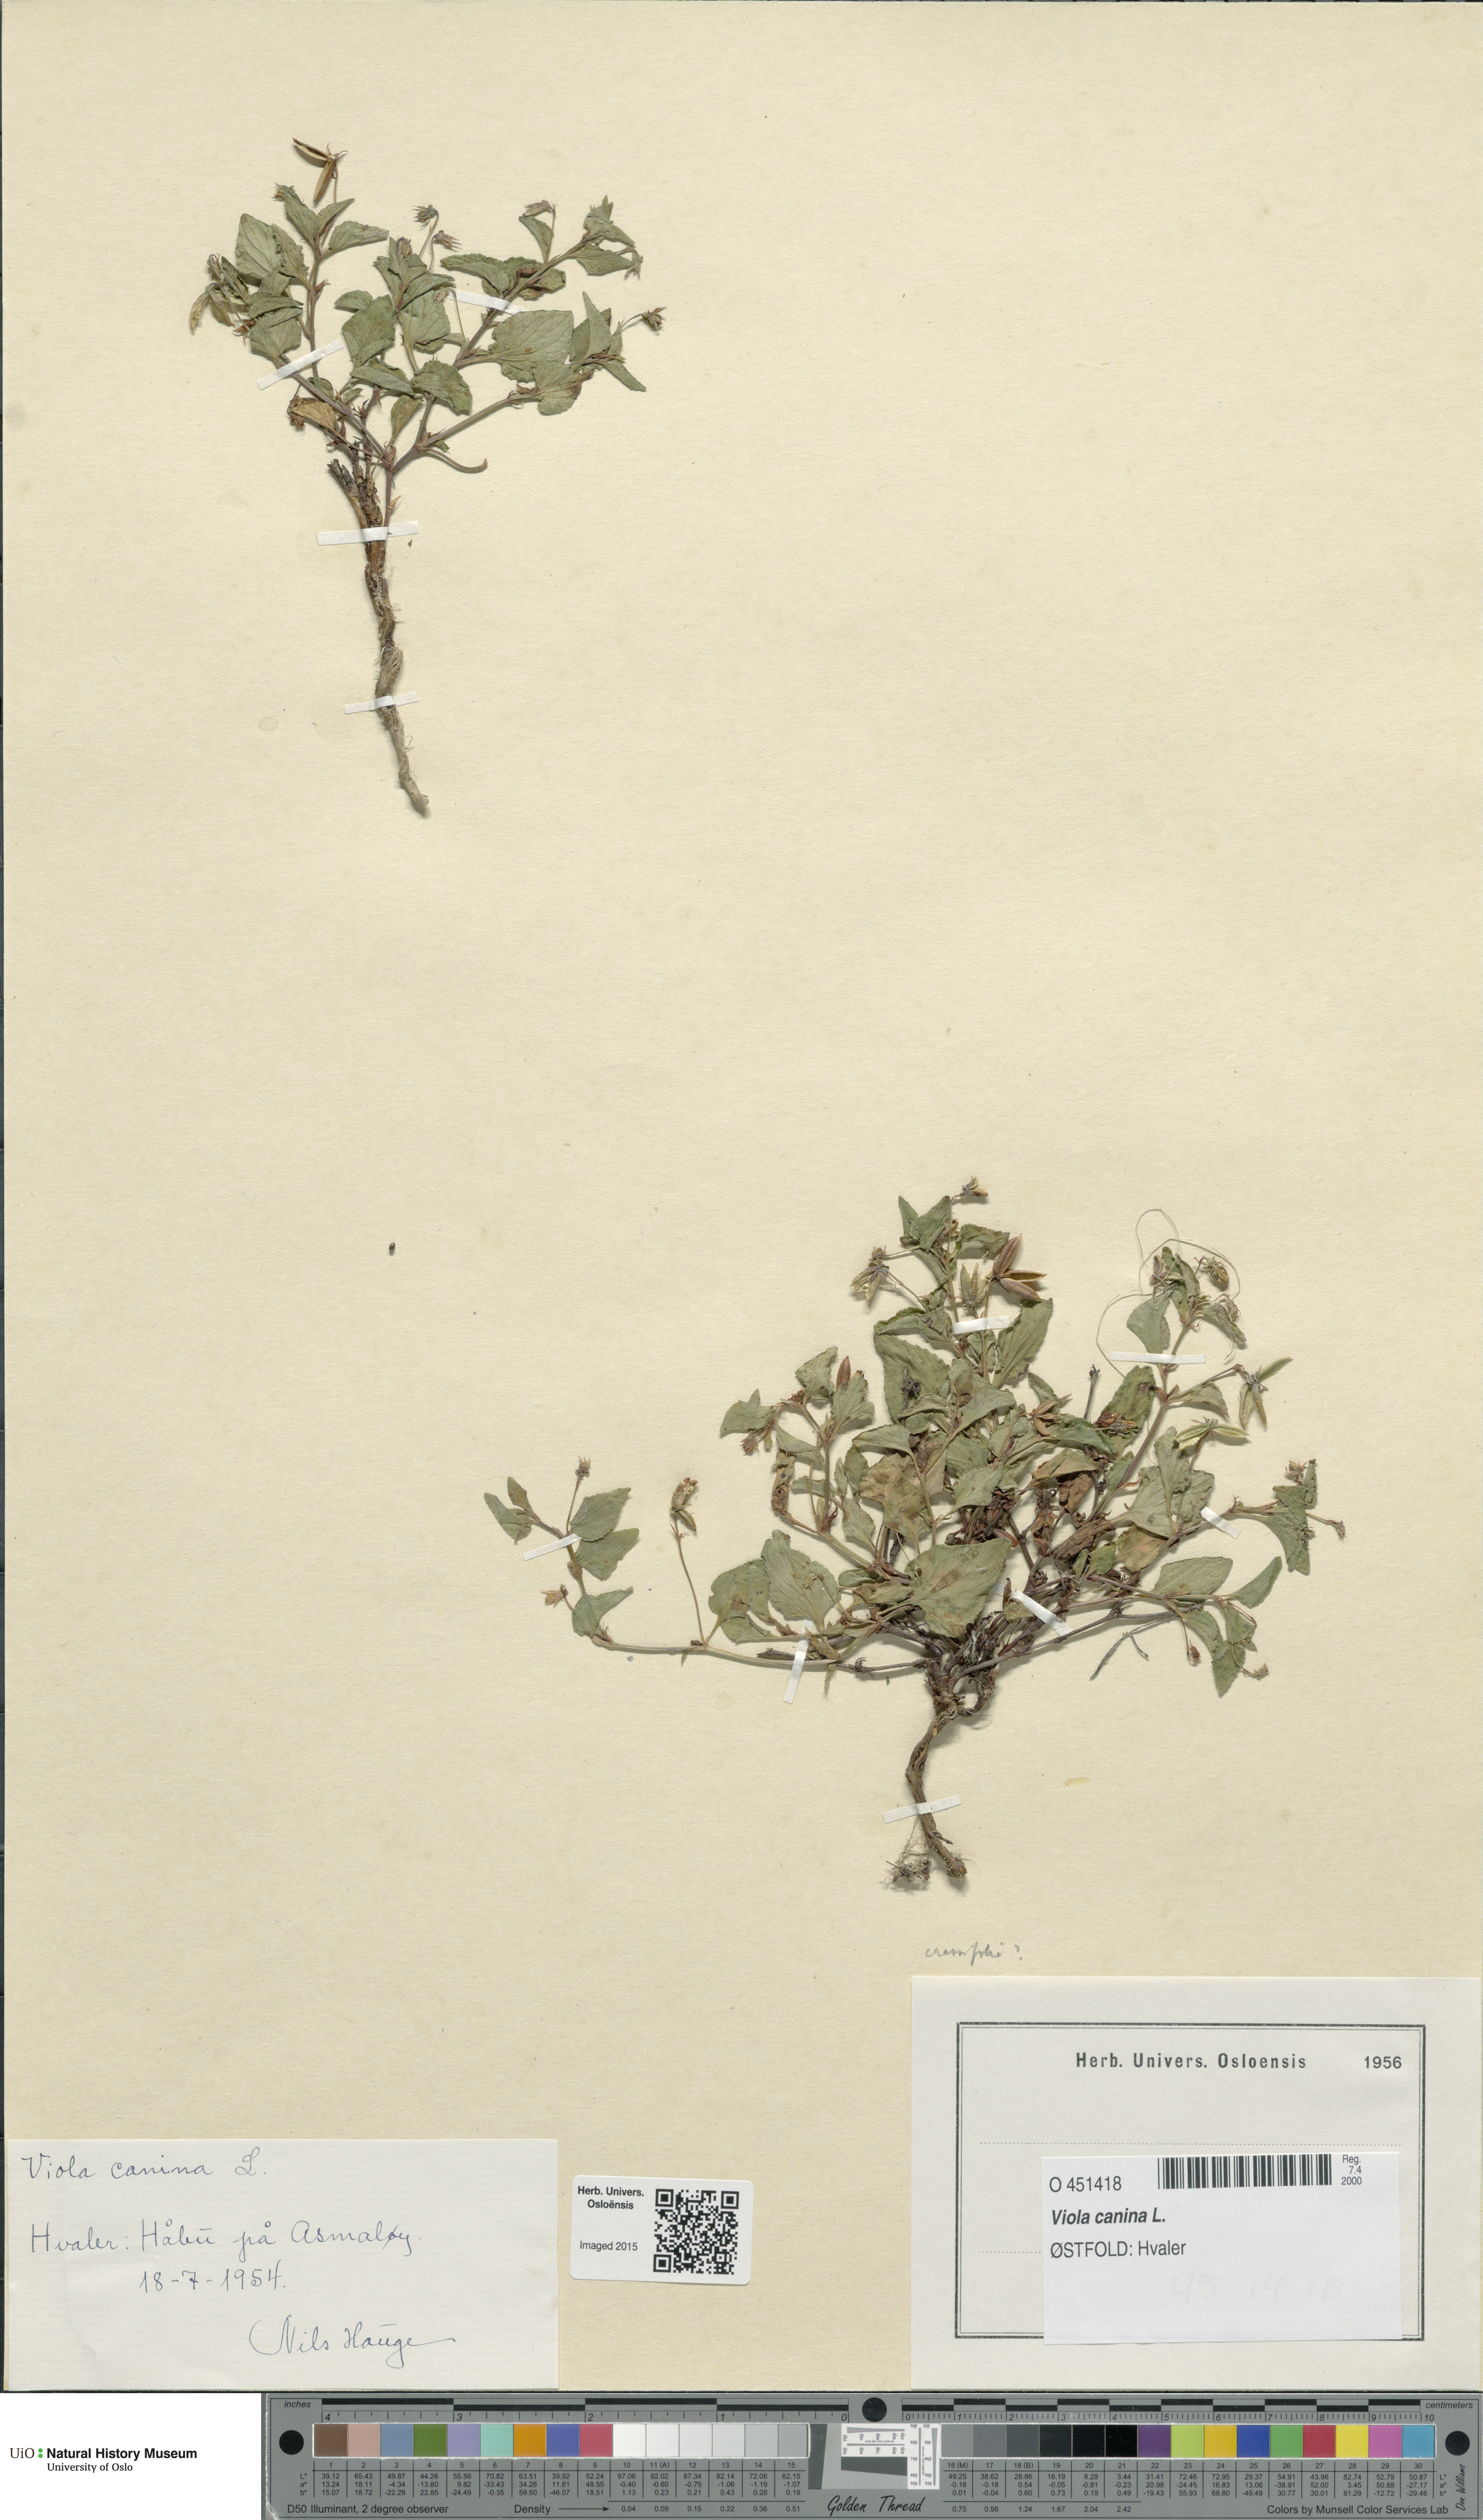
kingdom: Plantae
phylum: Tracheophyta
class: Magnoliopsida
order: Malpighiales
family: Violaceae
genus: Viola
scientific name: Viola canina
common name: Heath dog-violet
